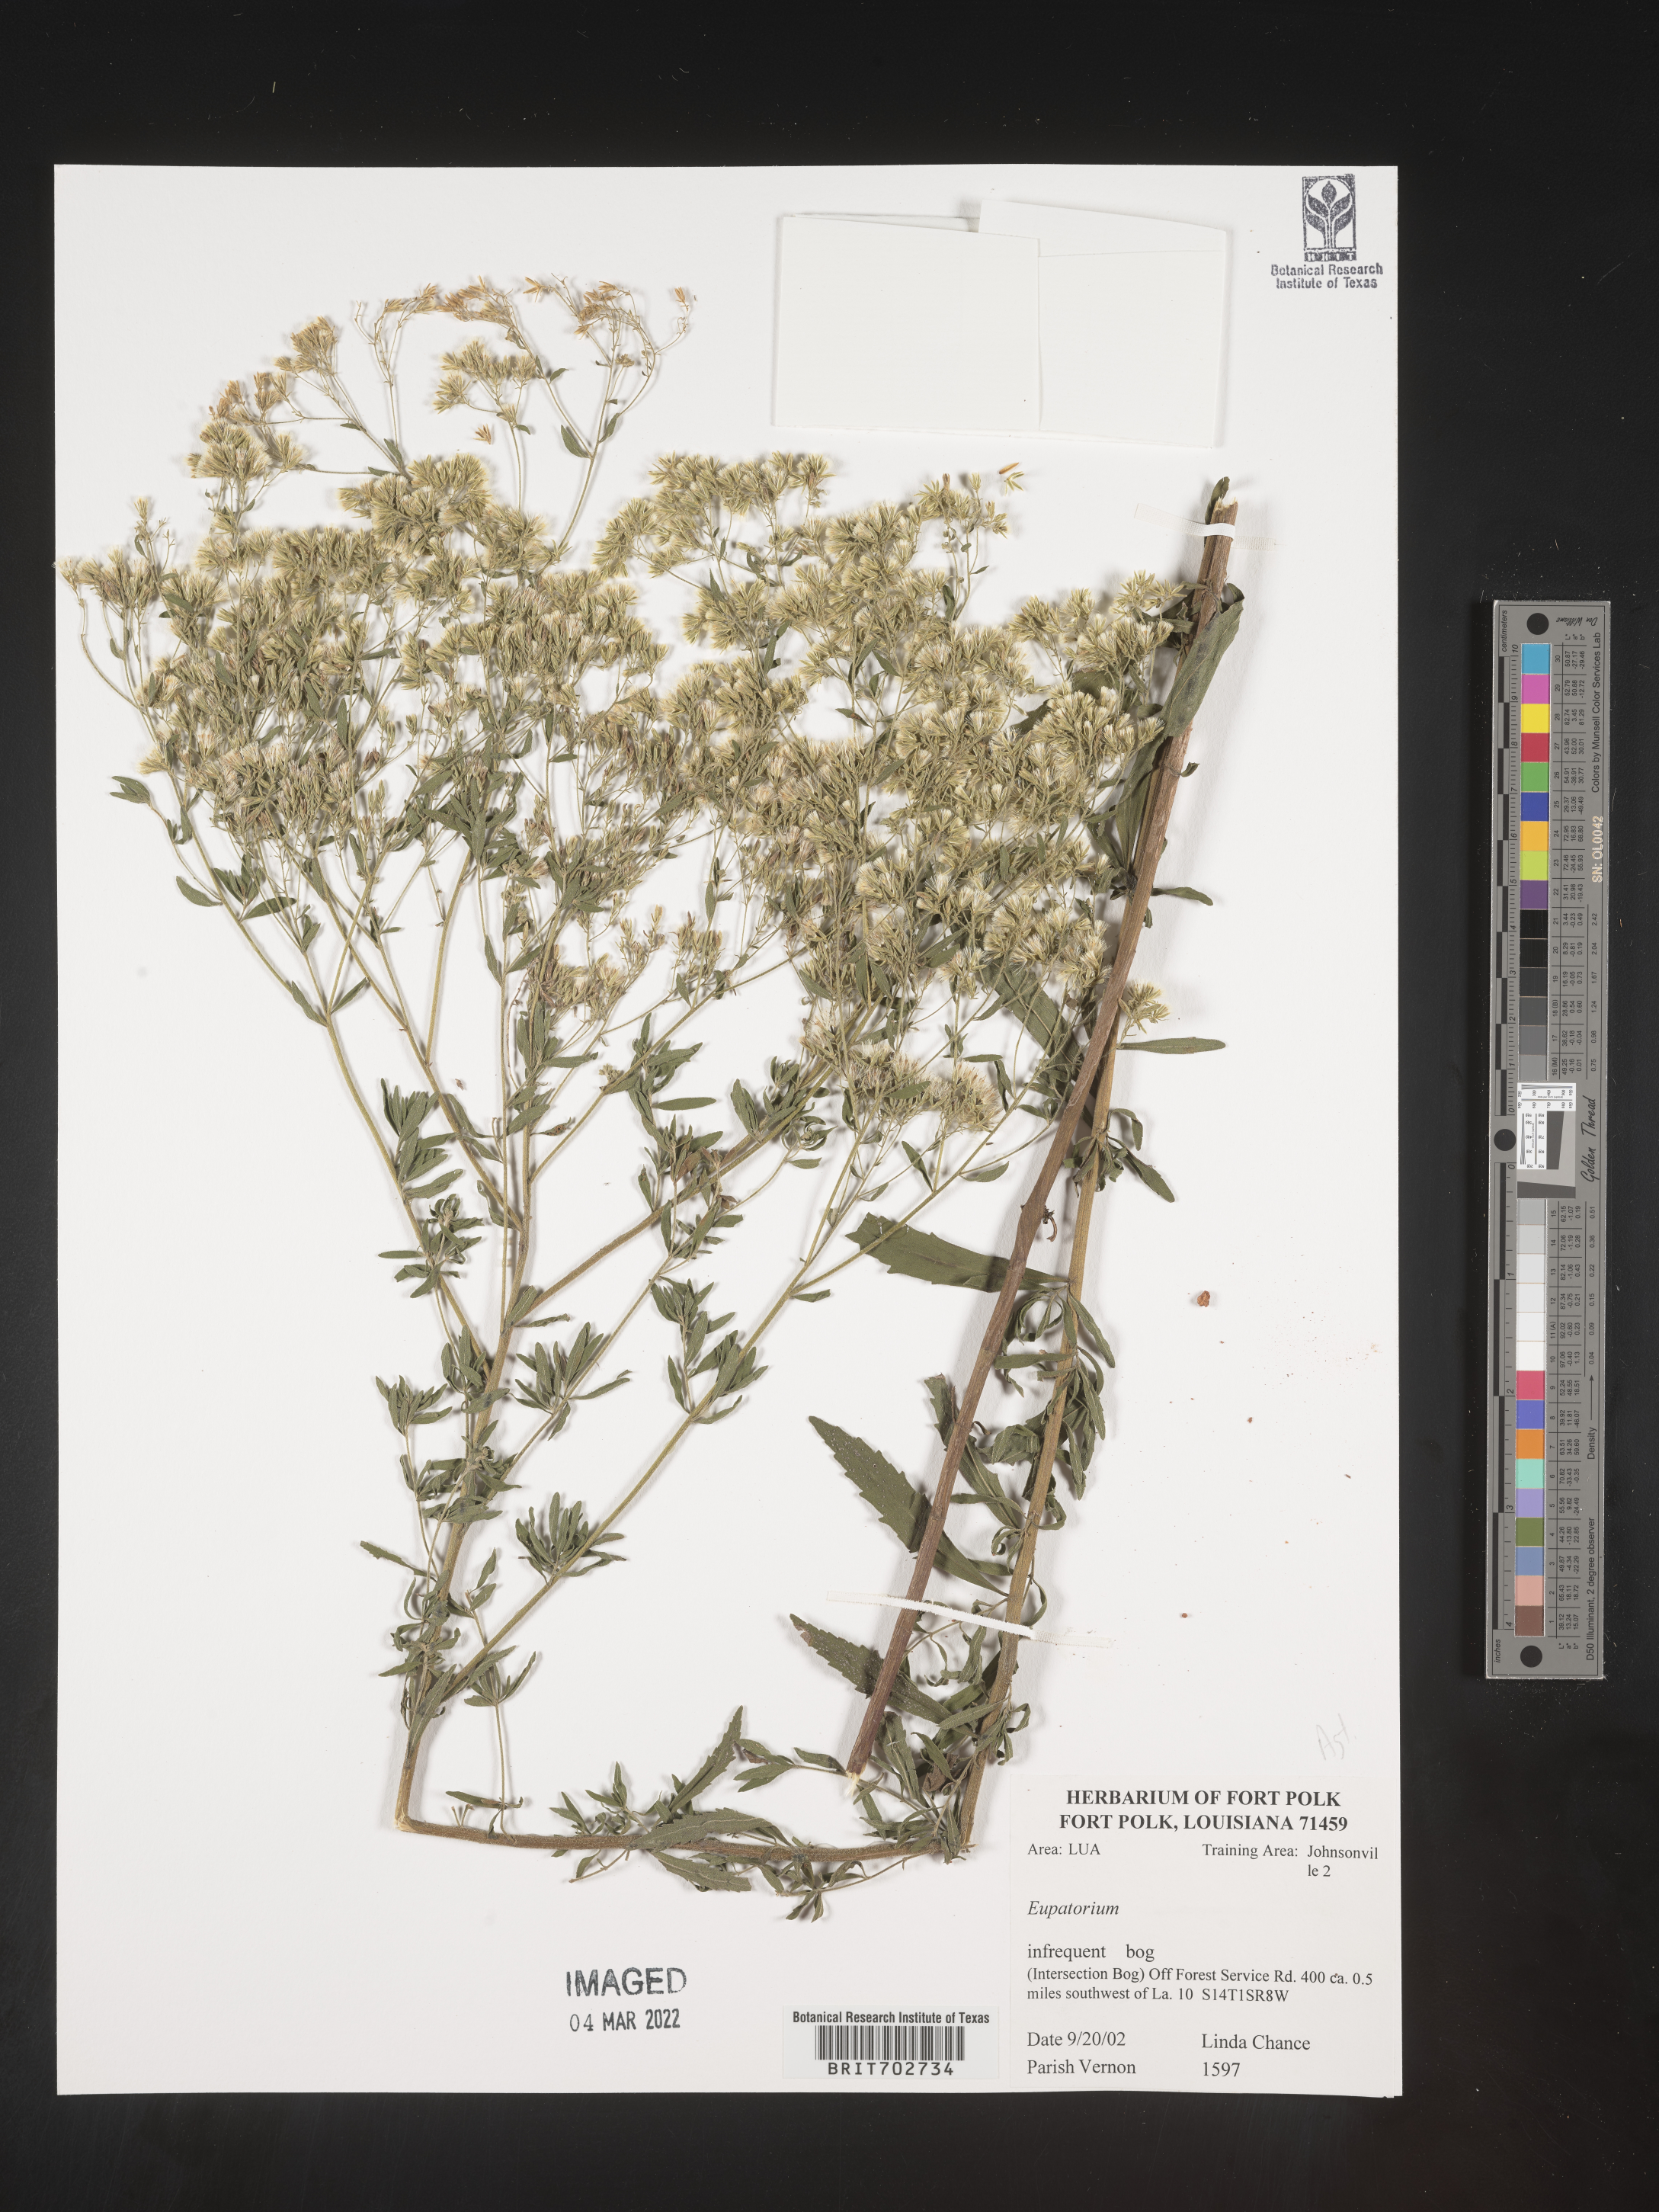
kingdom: Plantae
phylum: Tracheophyta
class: Magnoliopsida
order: Asterales
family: Asteraceae
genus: Eupatorium
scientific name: Eupatorium
